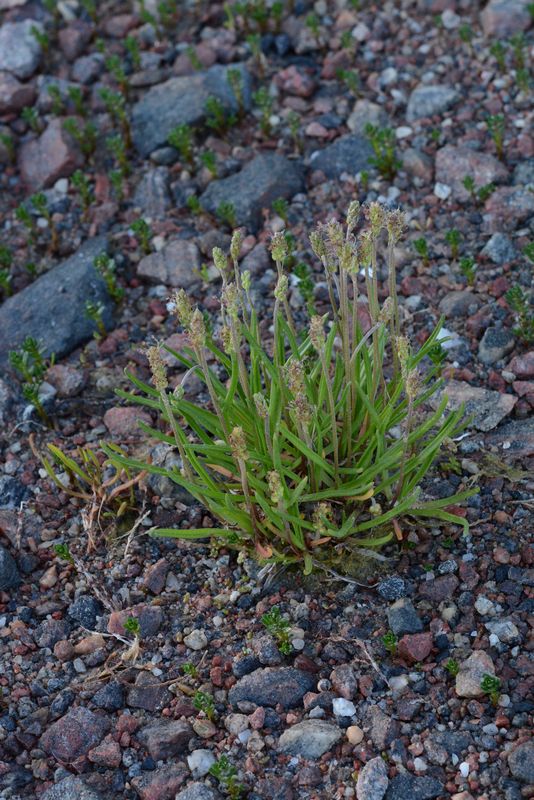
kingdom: Plantae
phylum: Tracheophyta
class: Magnoliopsida
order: Lamiales
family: Plantaginaceae
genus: Plantago
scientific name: Plantago maritima
